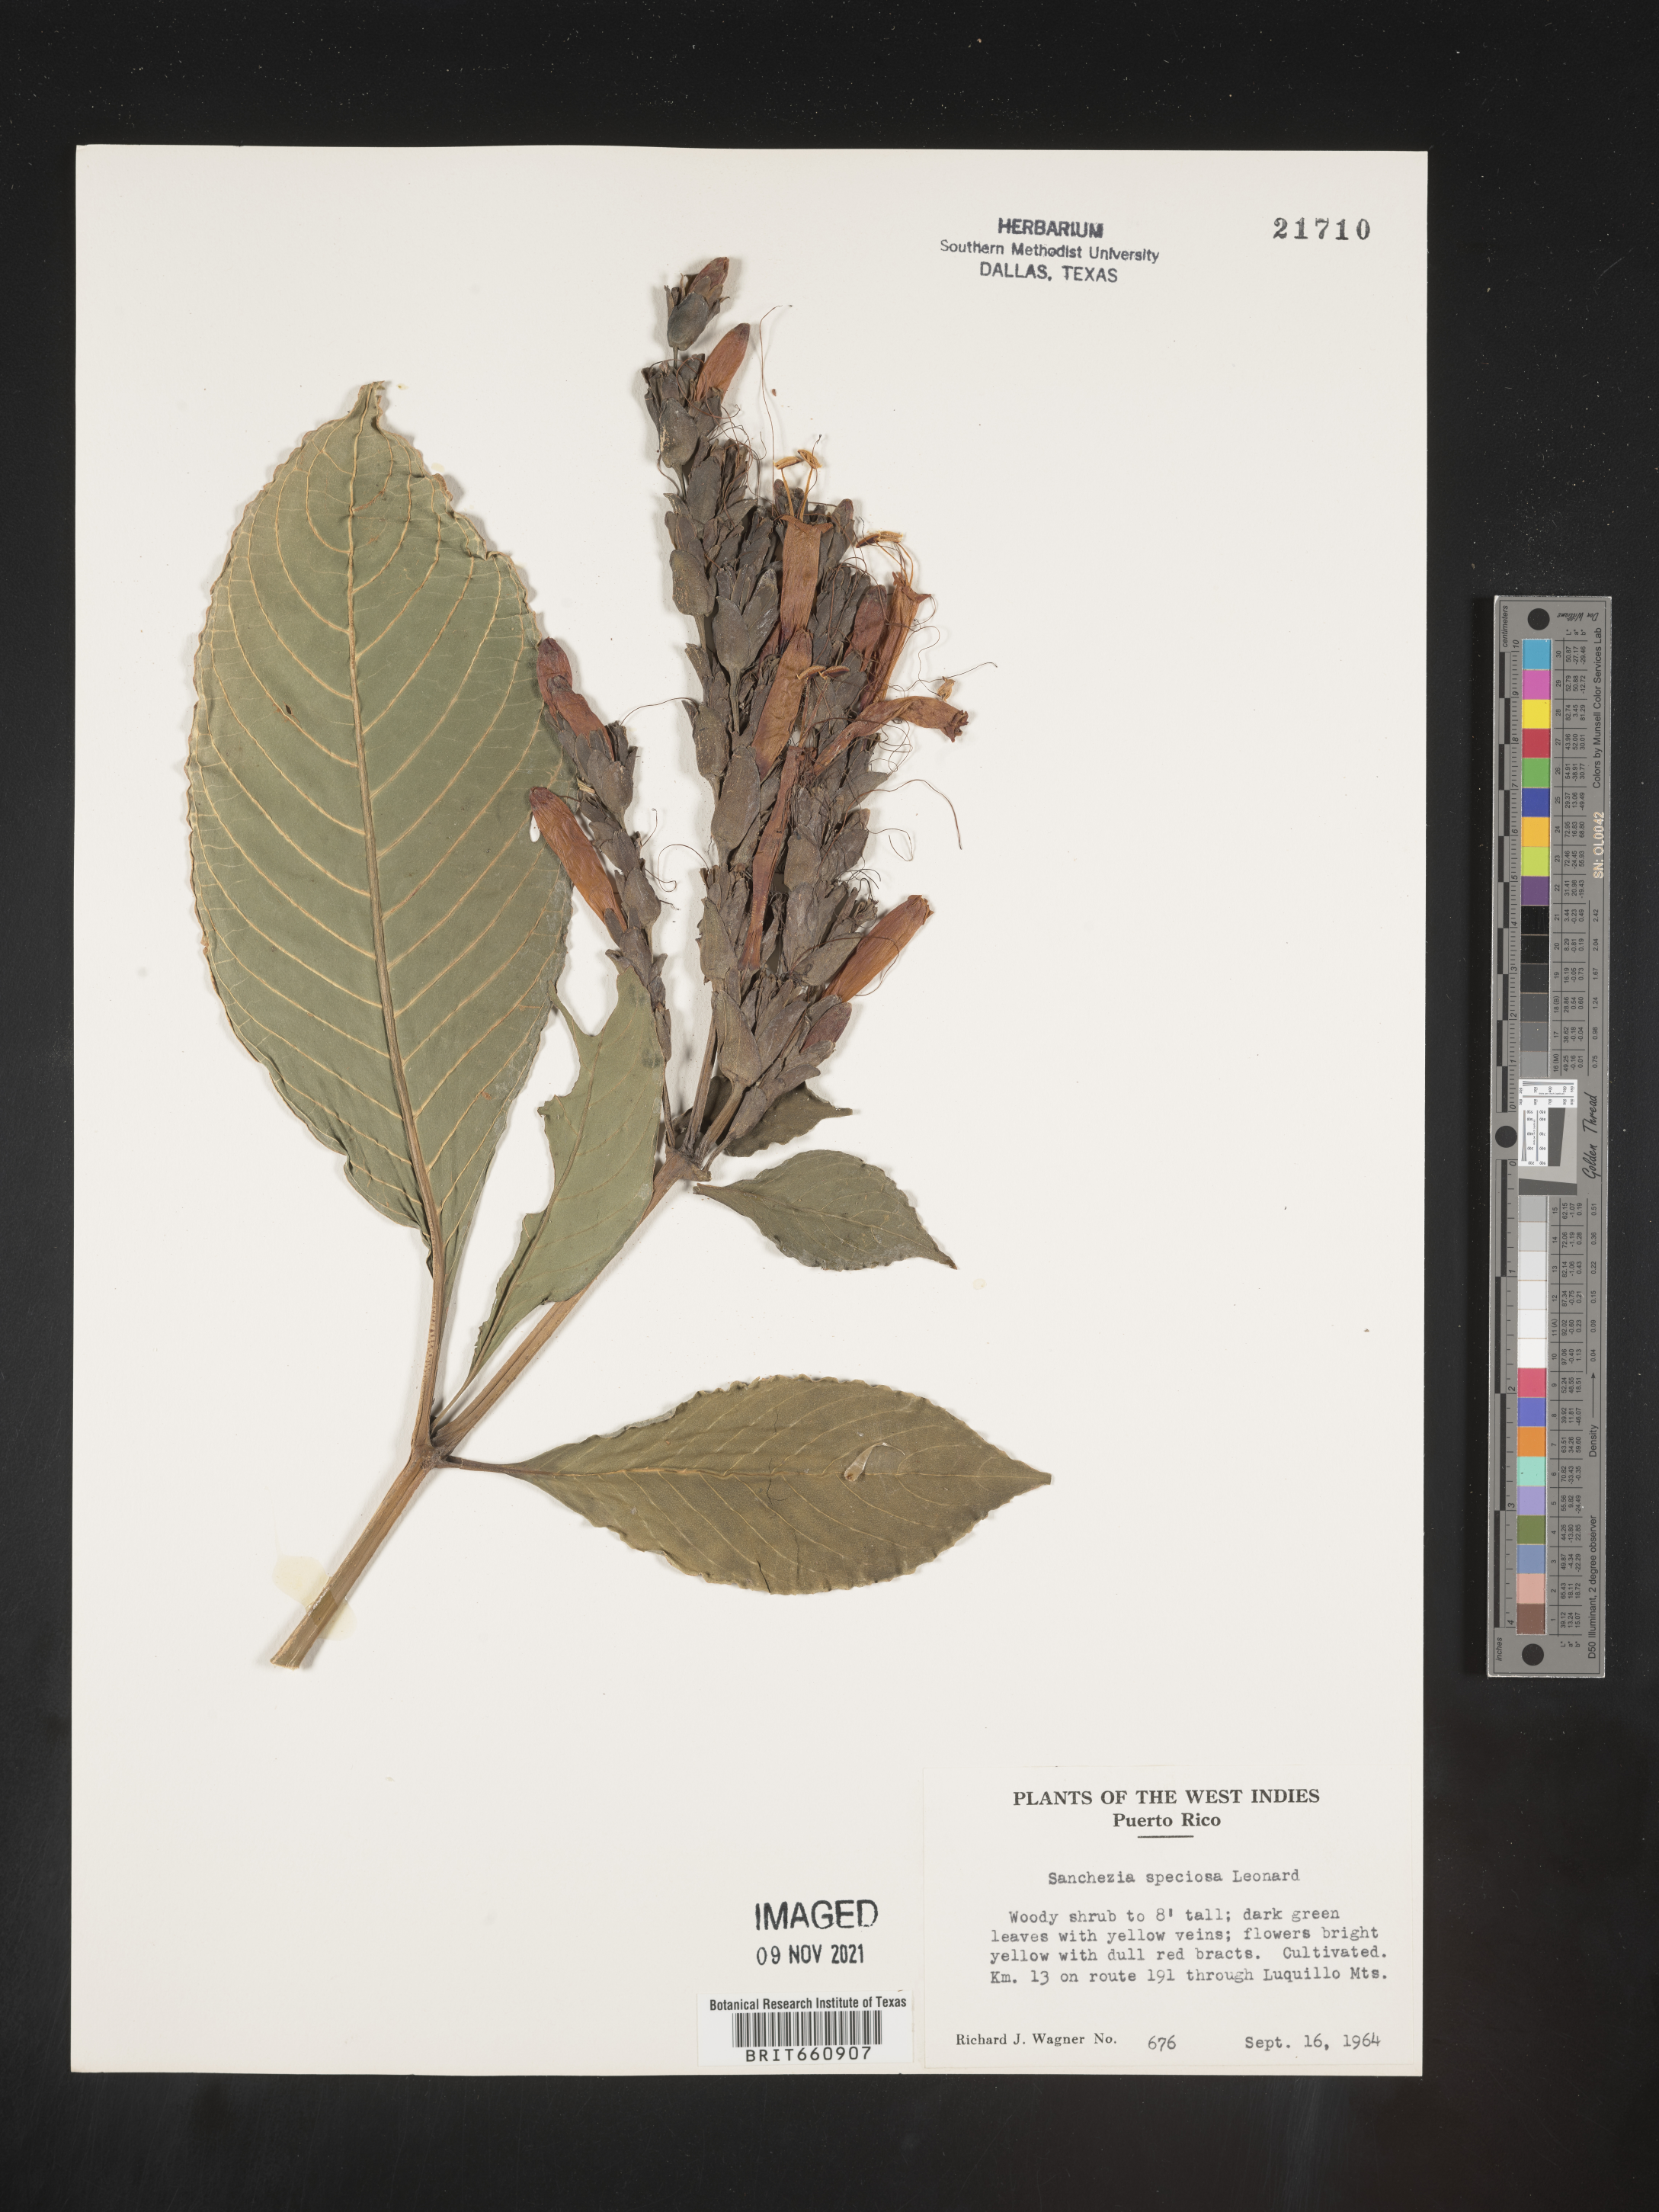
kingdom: Plantae
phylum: Tracheophyta
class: Magnoliopsida
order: Lamiales
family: Acanthaceae
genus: Sanchezia
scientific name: Sanchezia
